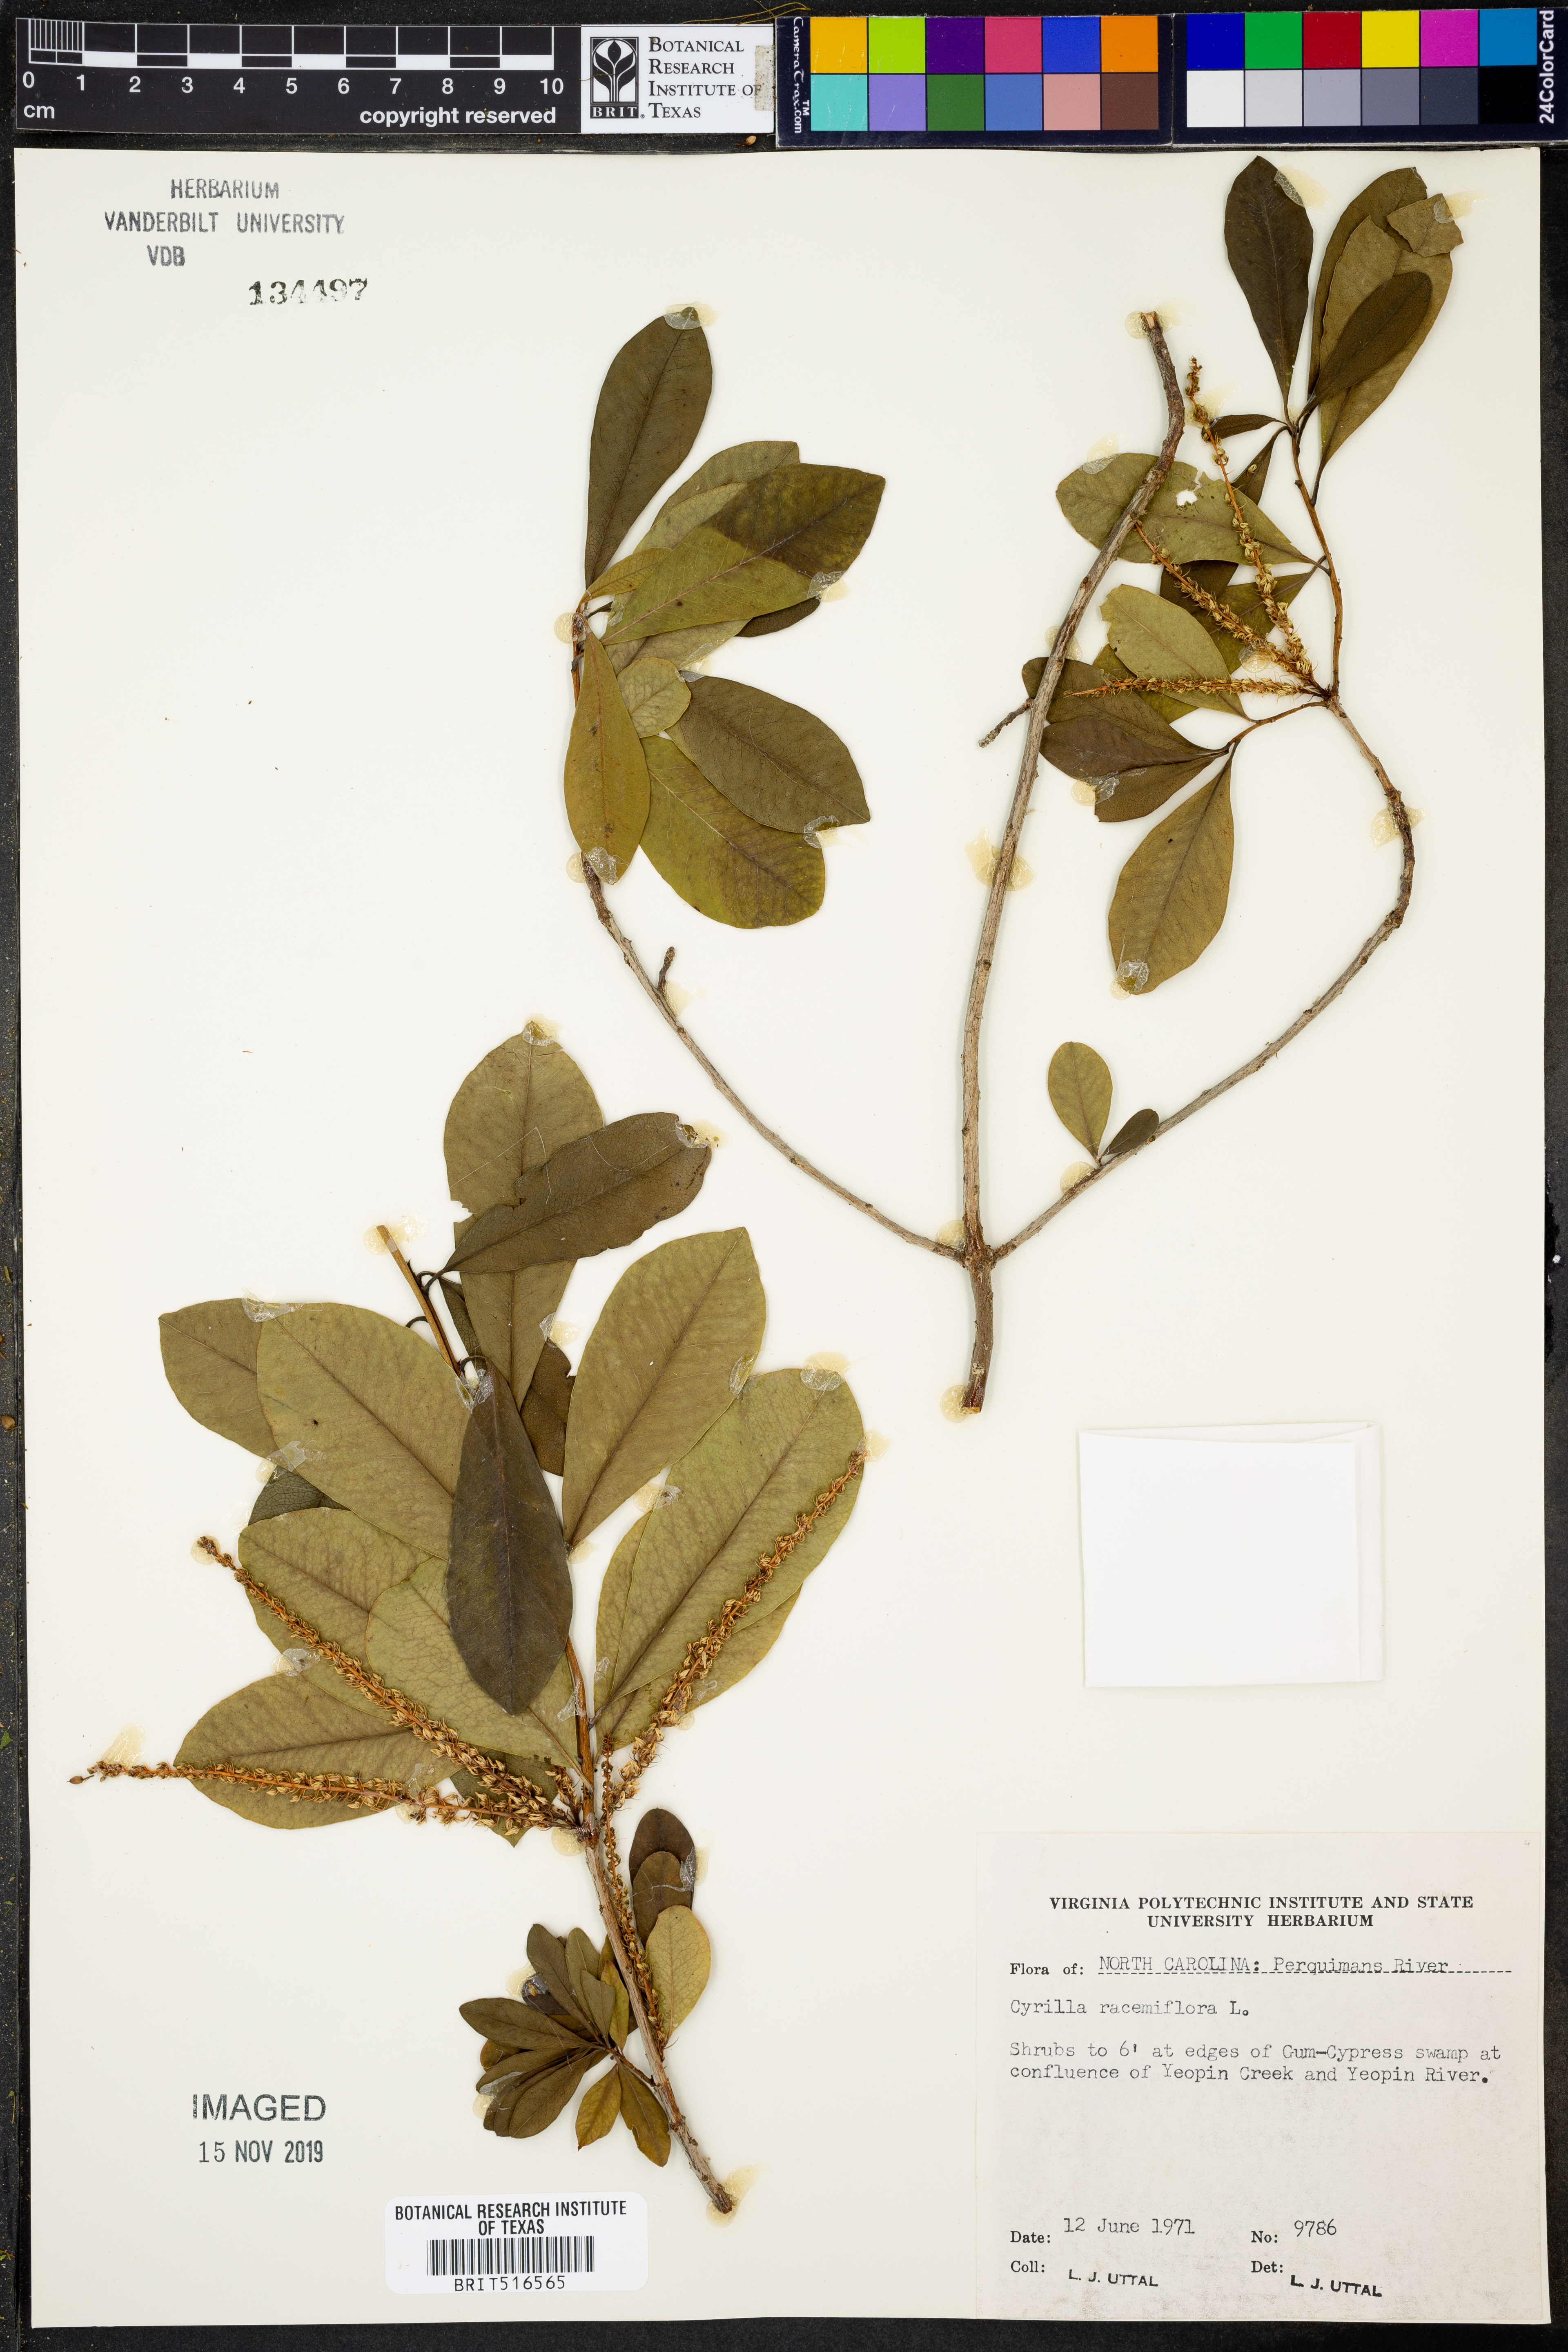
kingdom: Plantae
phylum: Tracheophyta
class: Magnoliopsida
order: Ericales
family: Cyrillaceae
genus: Cyrilla
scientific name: Cyrilla racemiflora
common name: Black titi
